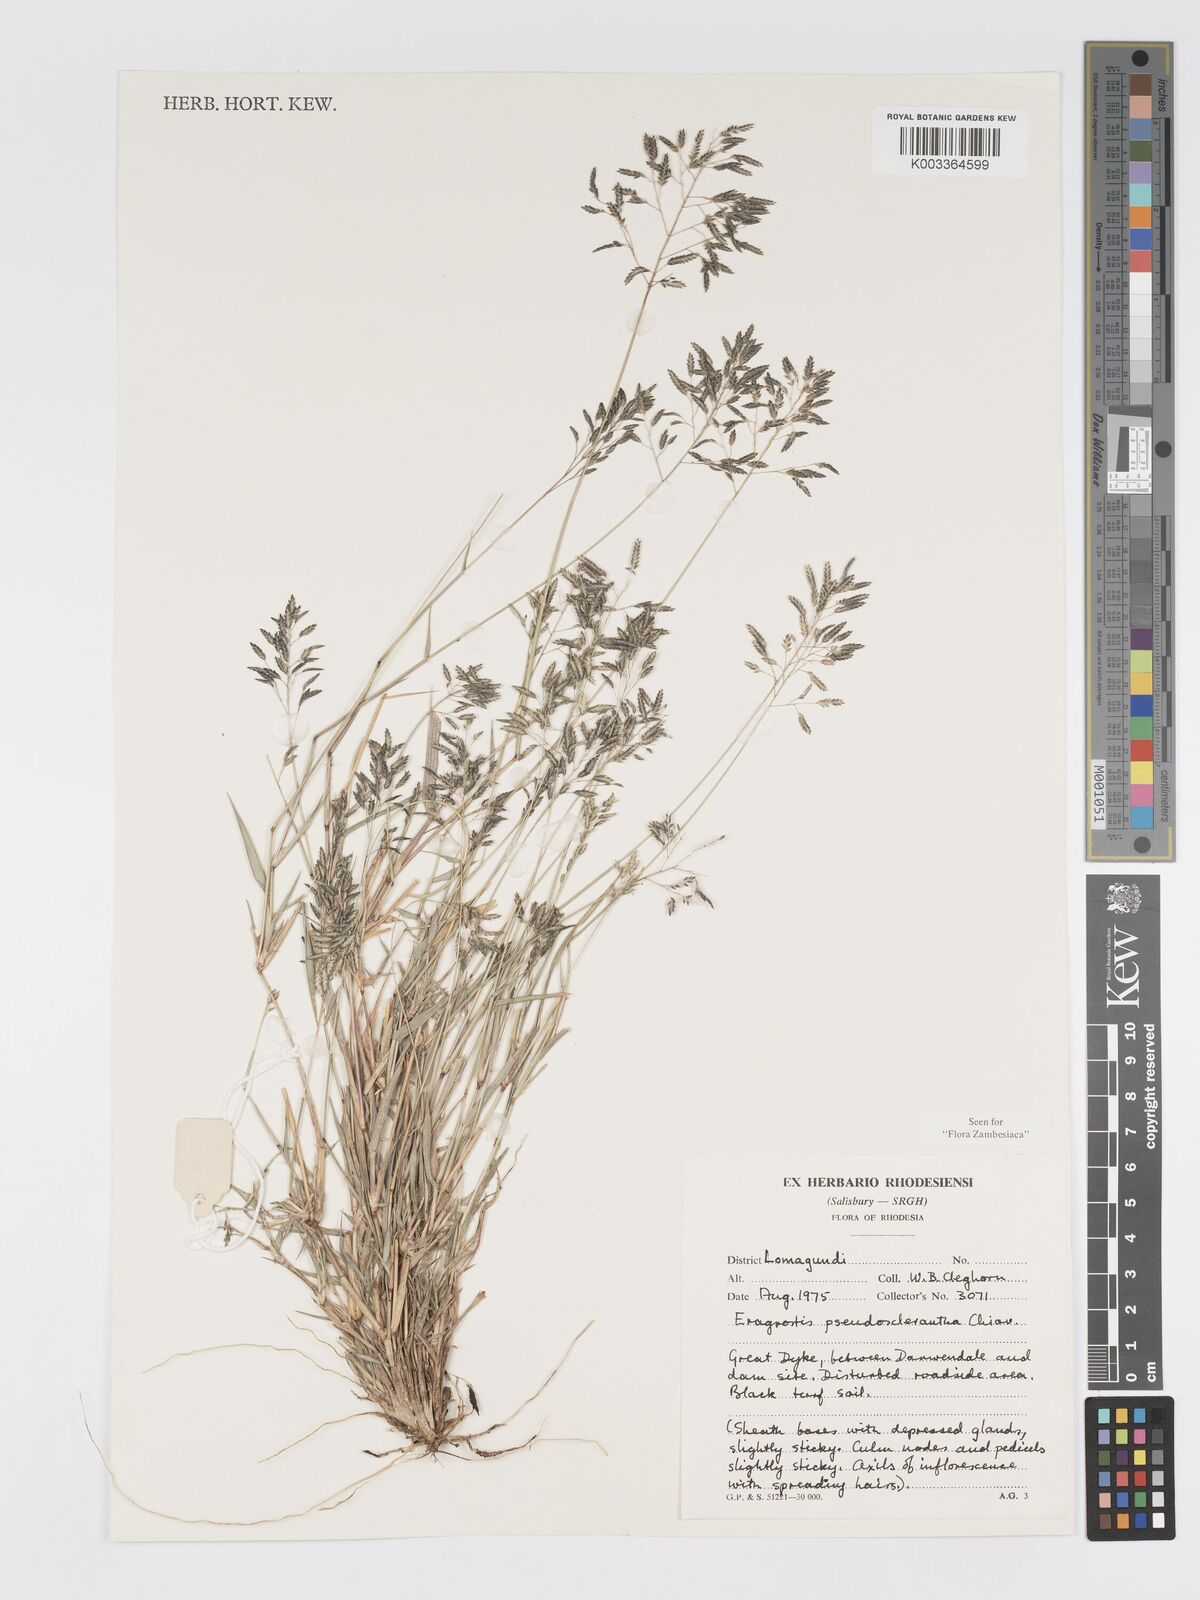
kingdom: Plantae
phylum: Tracheophyta
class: Liliopsida
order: Poales
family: Poaceae
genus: Eragrostis
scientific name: Eragrostis patentipilosa
